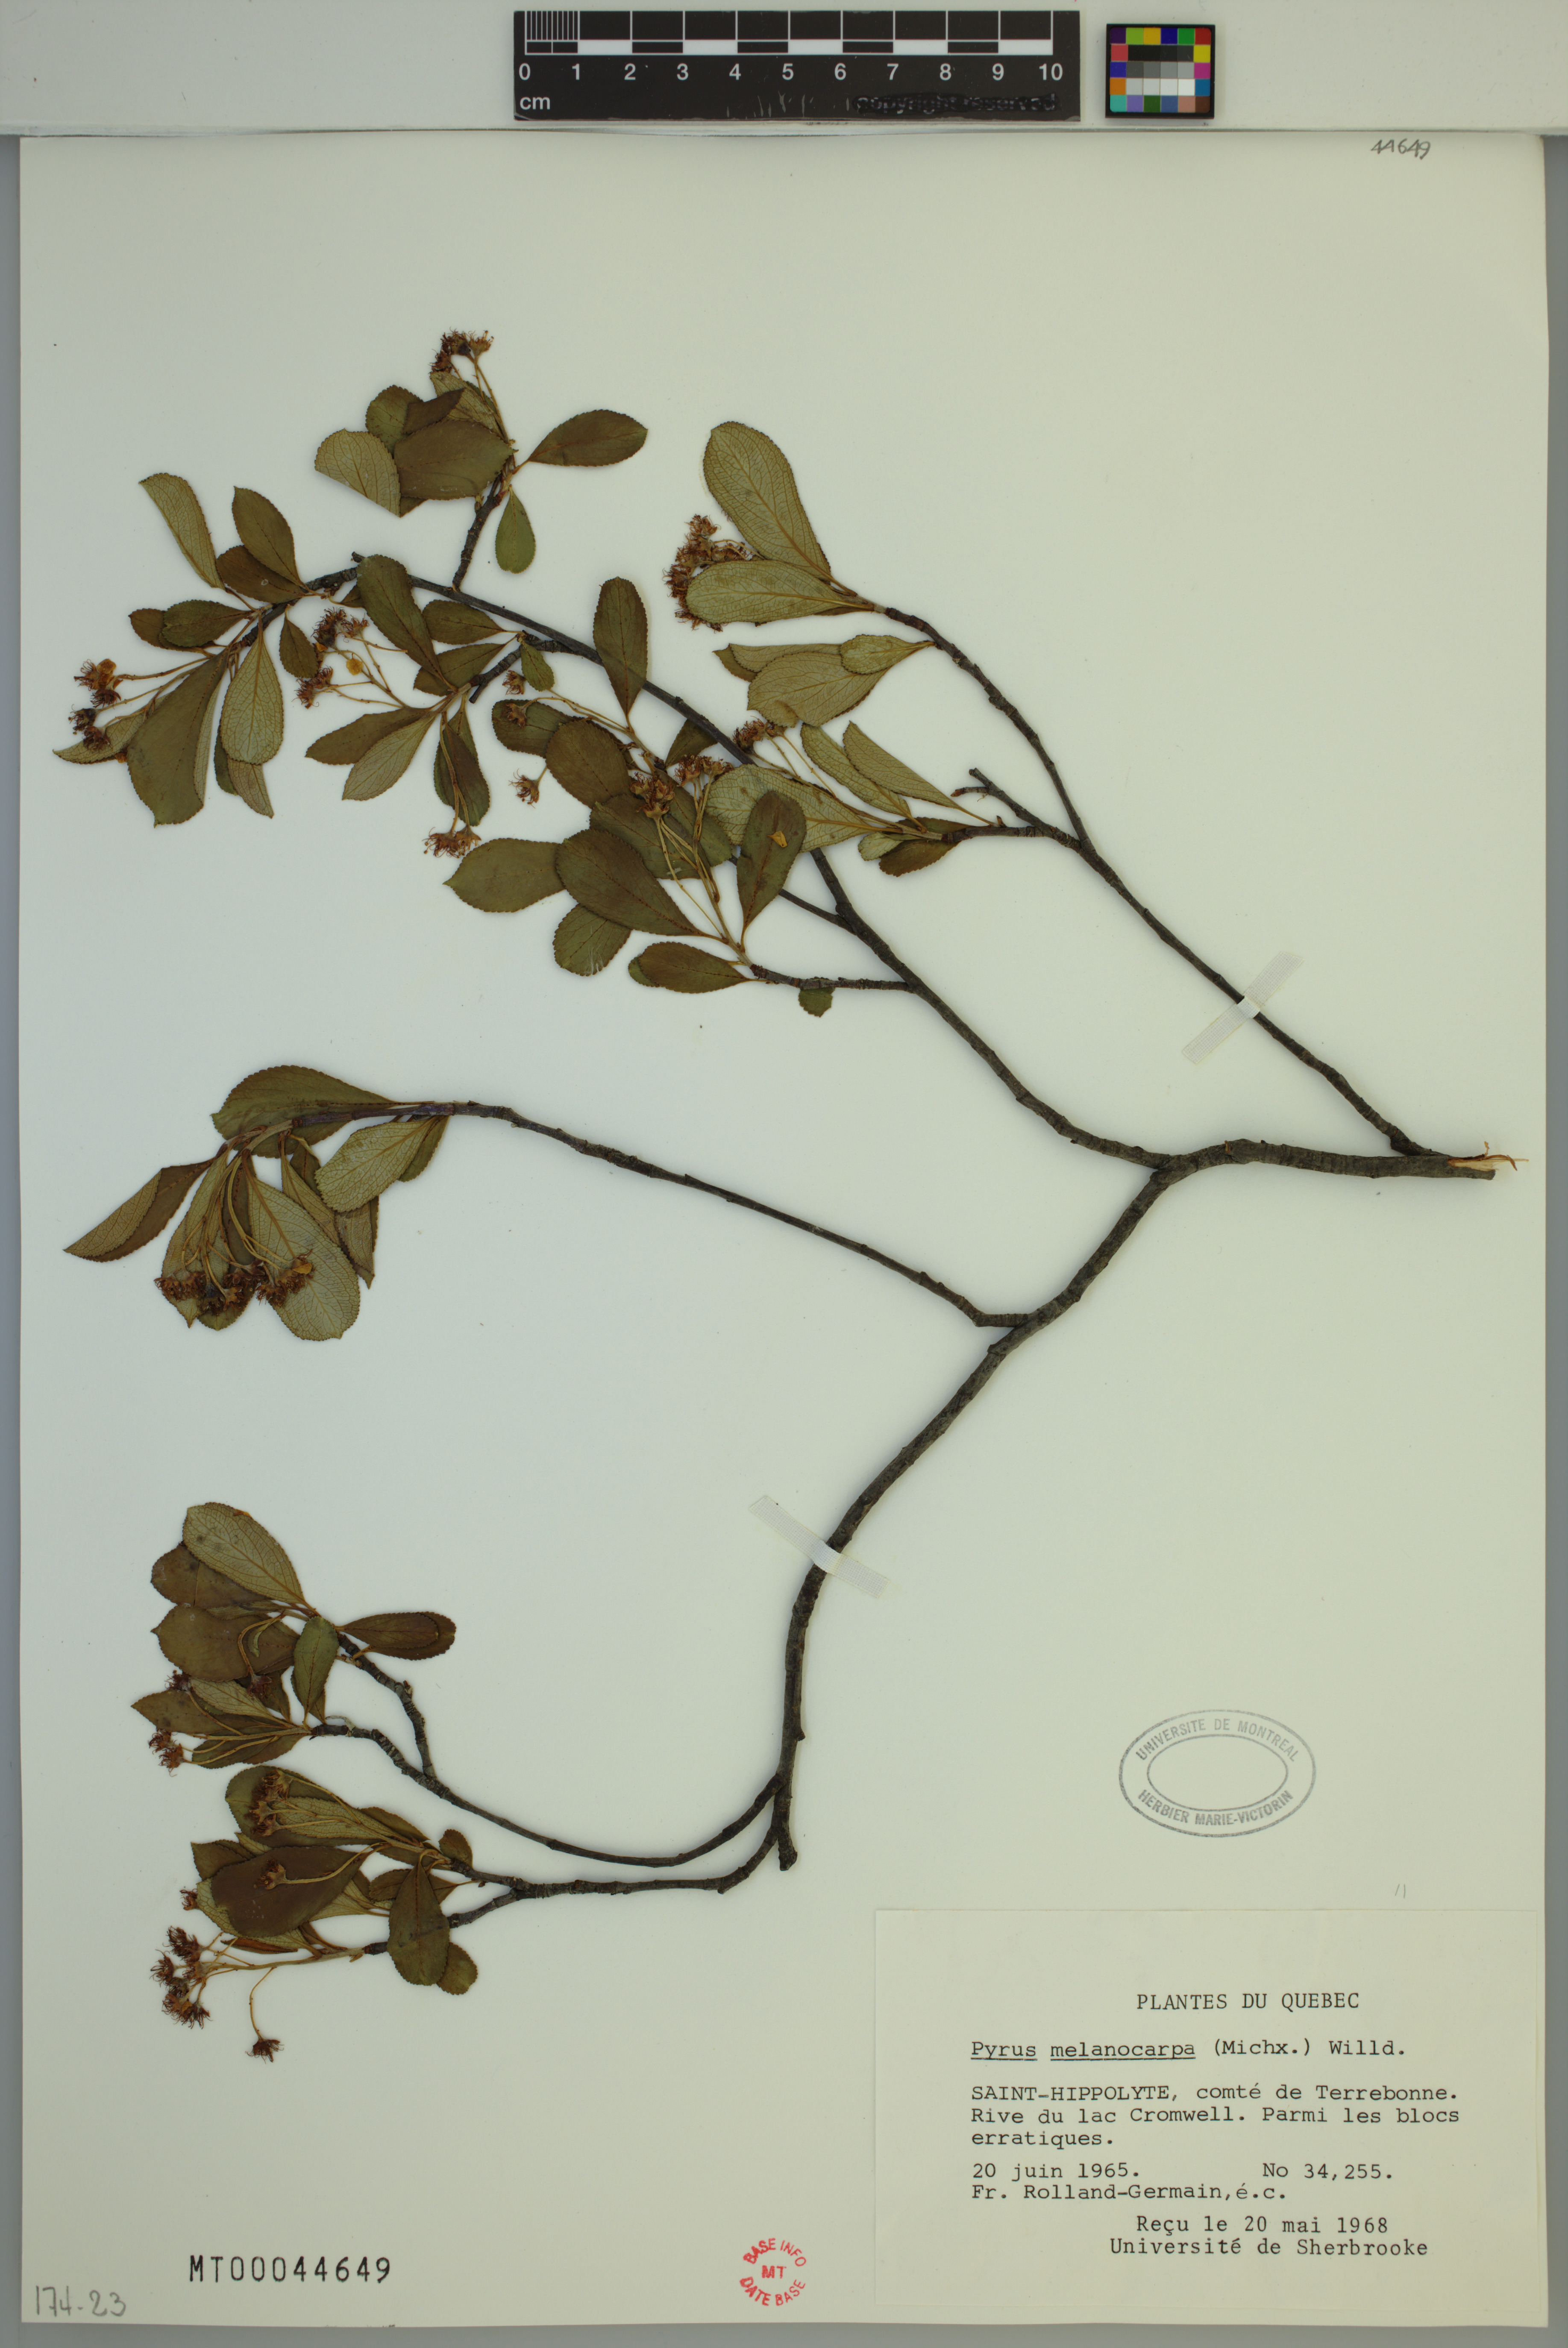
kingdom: Plantae
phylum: Tracheophyta
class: Magnoliopsida
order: Rosales
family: Rosaceae
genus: Aronia
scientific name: Aronia melanocarpa
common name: Black chokeberry
